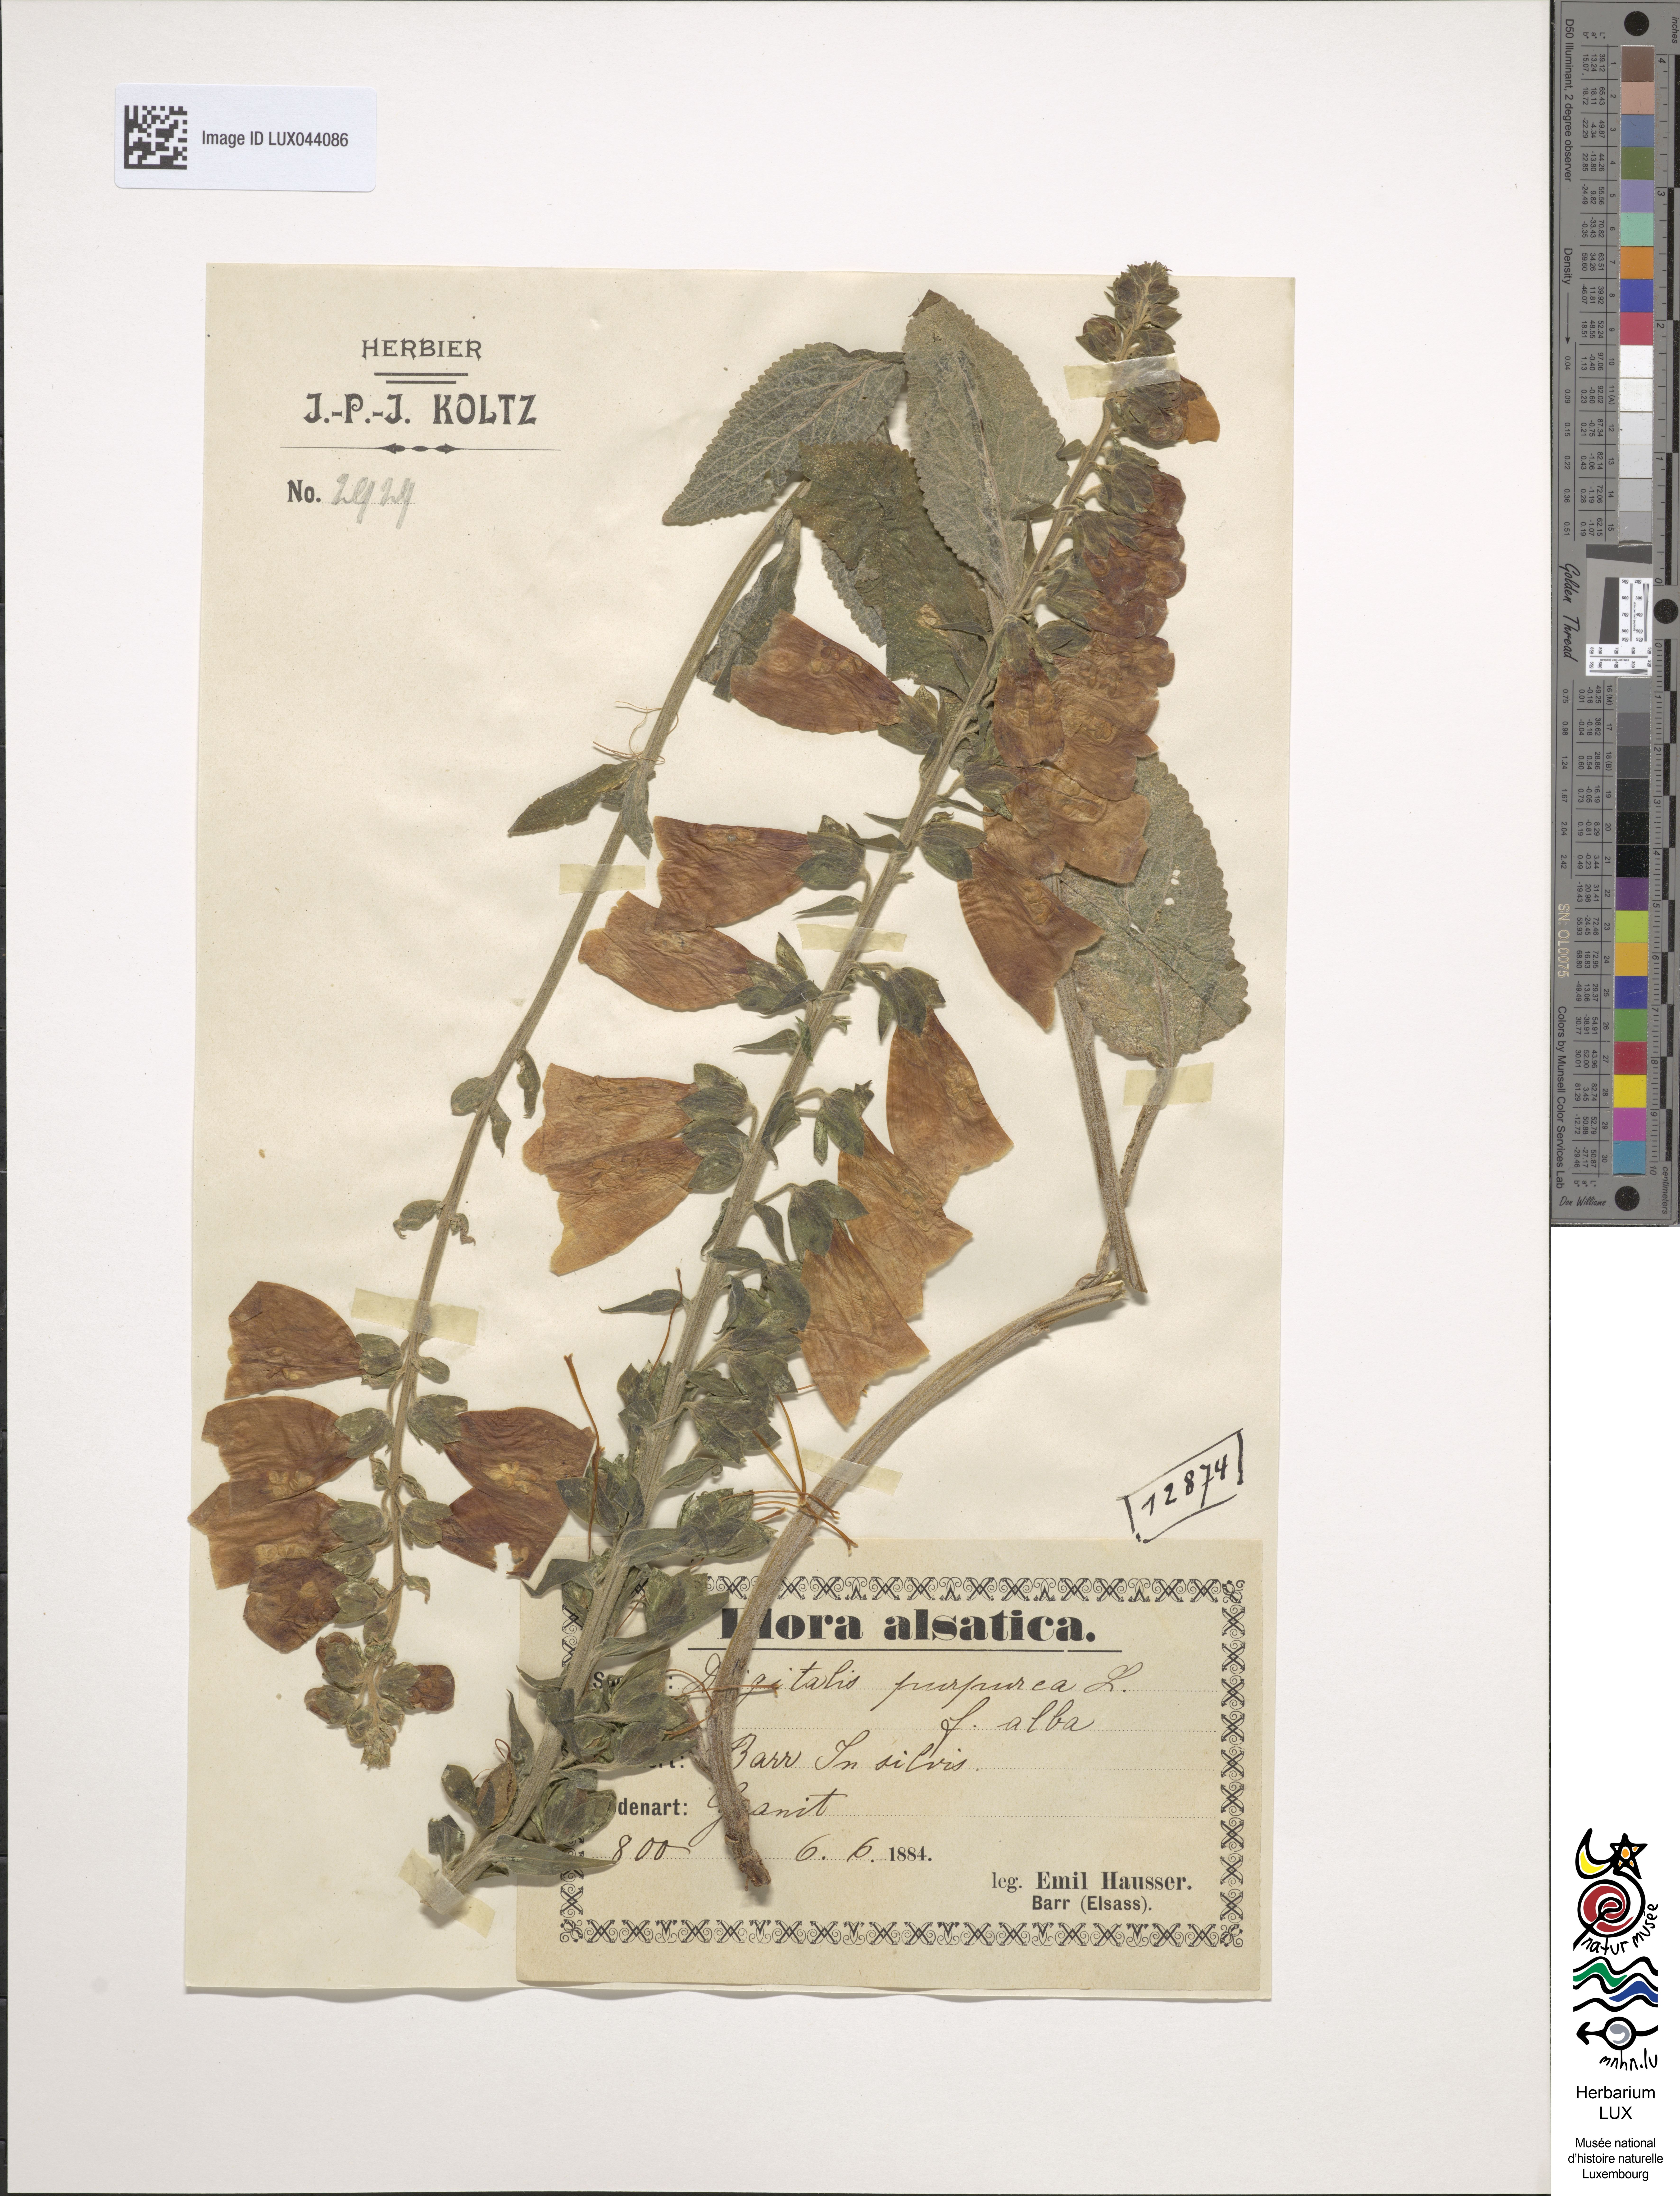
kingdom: Plantae
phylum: Tracheophyta
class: Magnoliopsida
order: Lamiales
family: Plantaginaceae
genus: Digitalis
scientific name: Digitalis purpurea
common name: Foxglove
